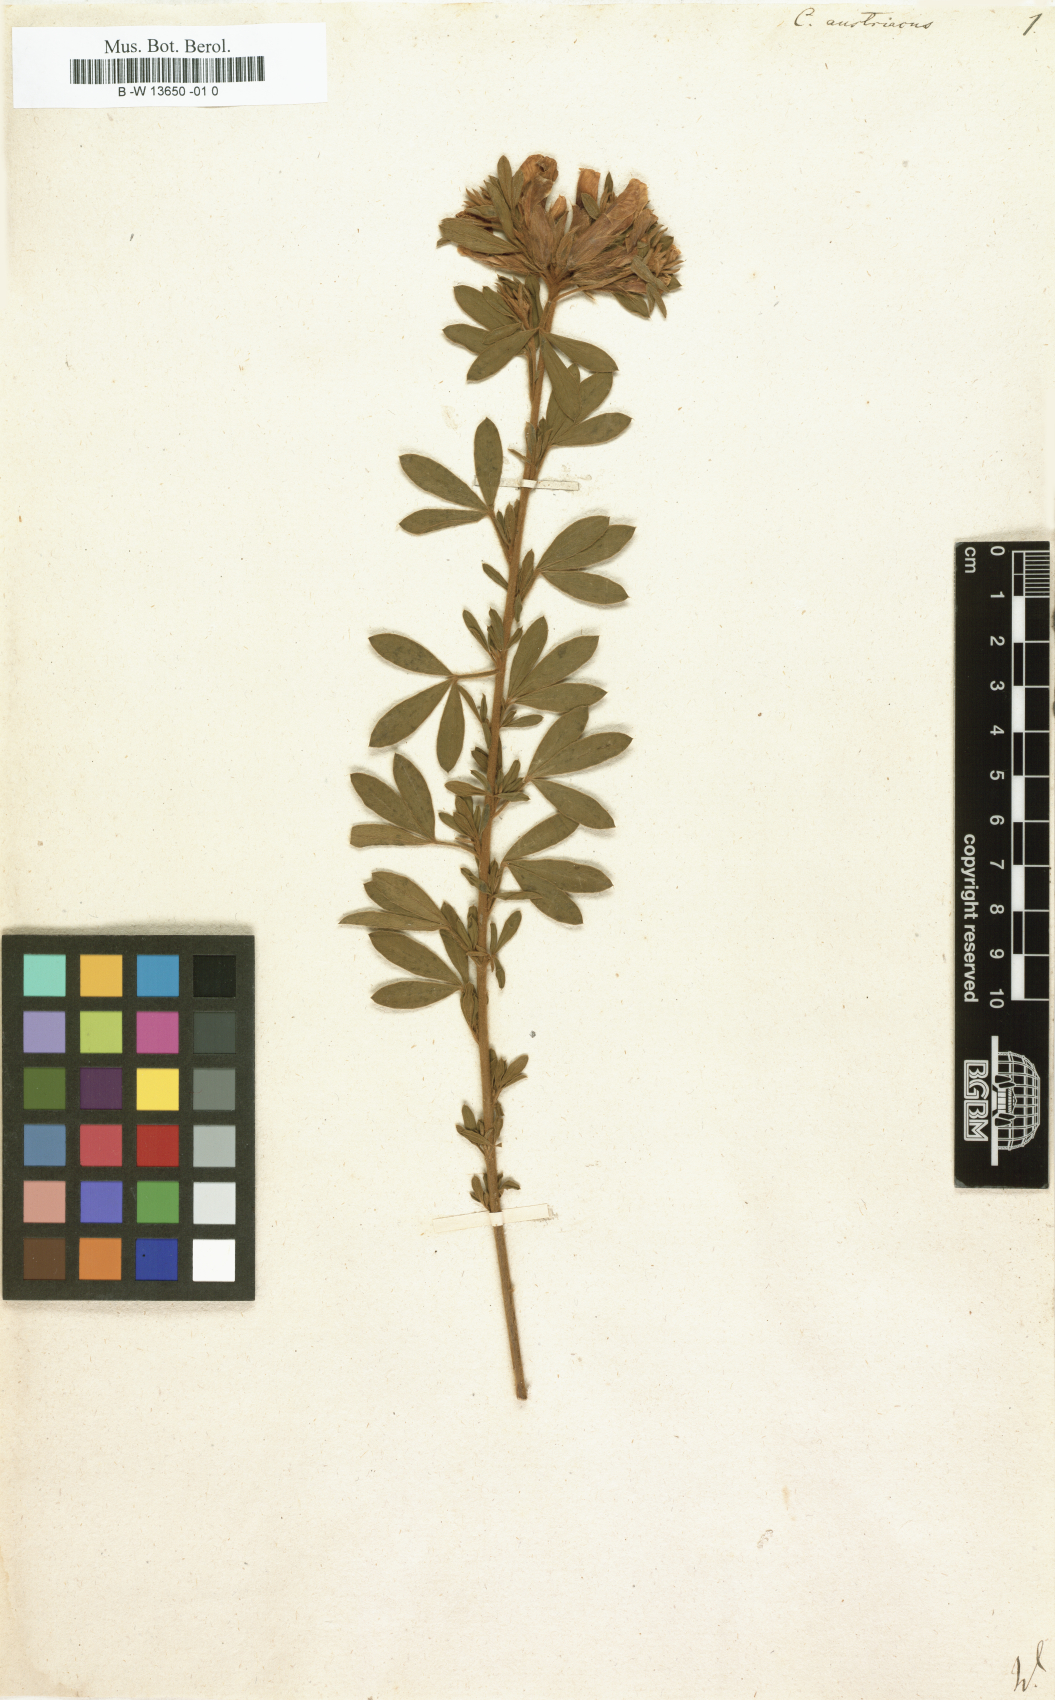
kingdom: Plantae
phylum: Tracheophyta
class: Magnoliopsida
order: Fabales
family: Fabaceae
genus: Chamaecytisus
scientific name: Chamaecytisus austriacus
